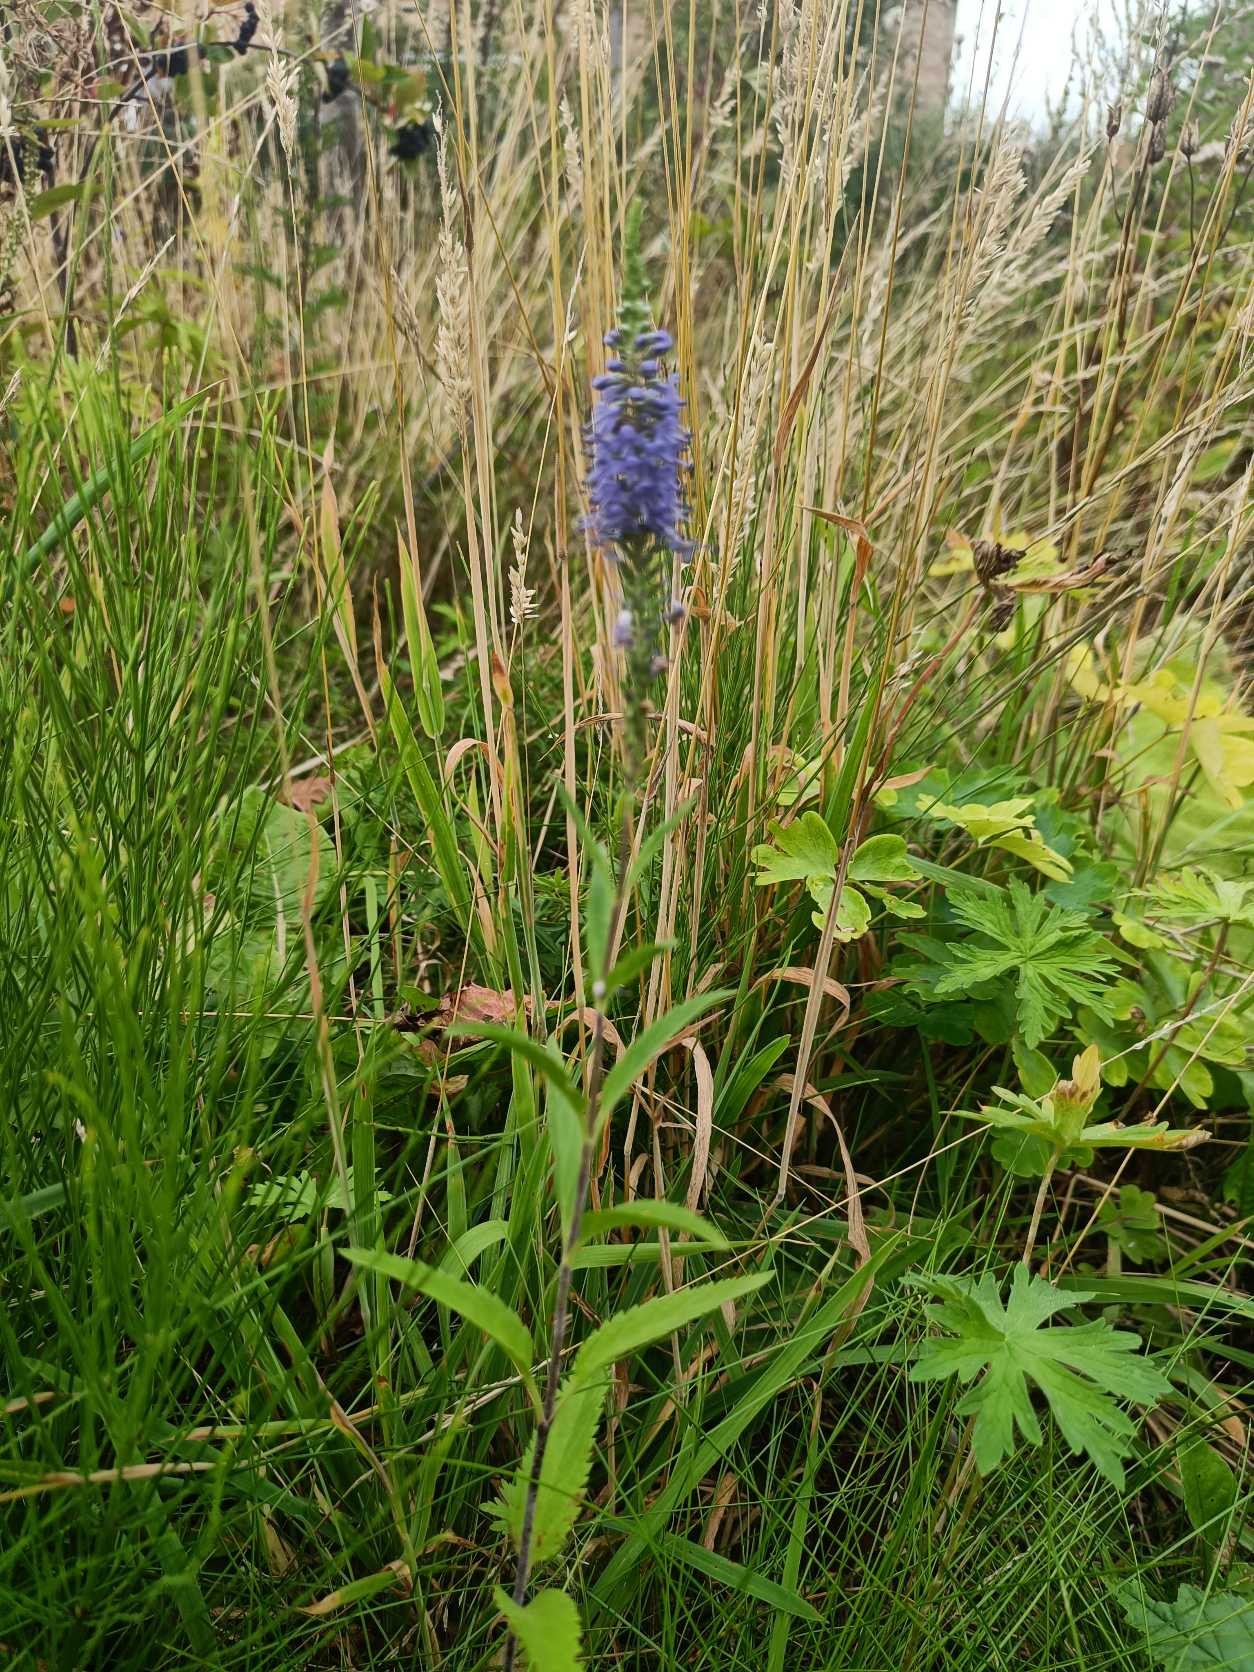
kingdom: Plantae
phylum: Tracheophyta
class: Magnoliopsida
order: Lamiales
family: Plantaginaceae
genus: Veronica
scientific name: Veronica
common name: Ærenprisslægten
